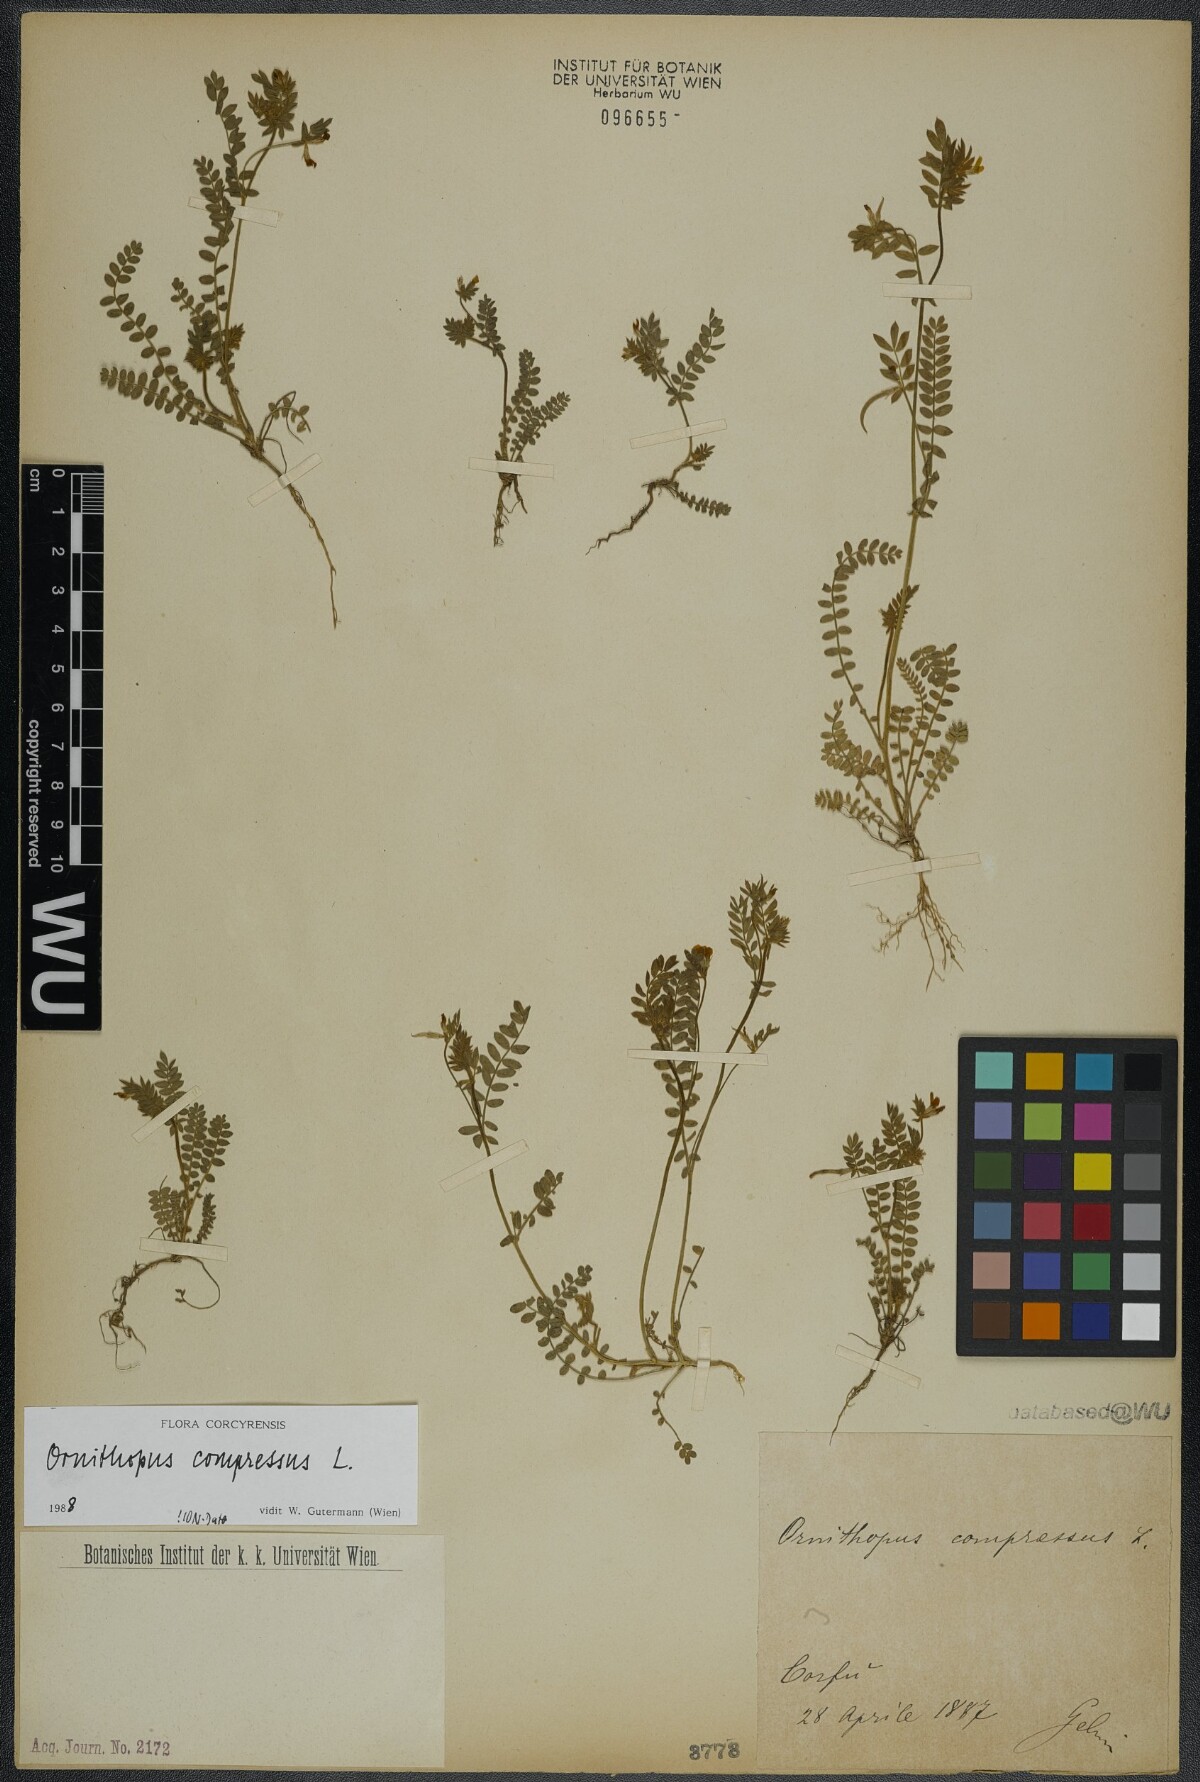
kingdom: Plantae
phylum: Tracheophyta
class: Magnoliopsida
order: Fabales
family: Fabaceae
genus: Ornithopus
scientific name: Ornithopus compressus
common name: Yellow serradella
